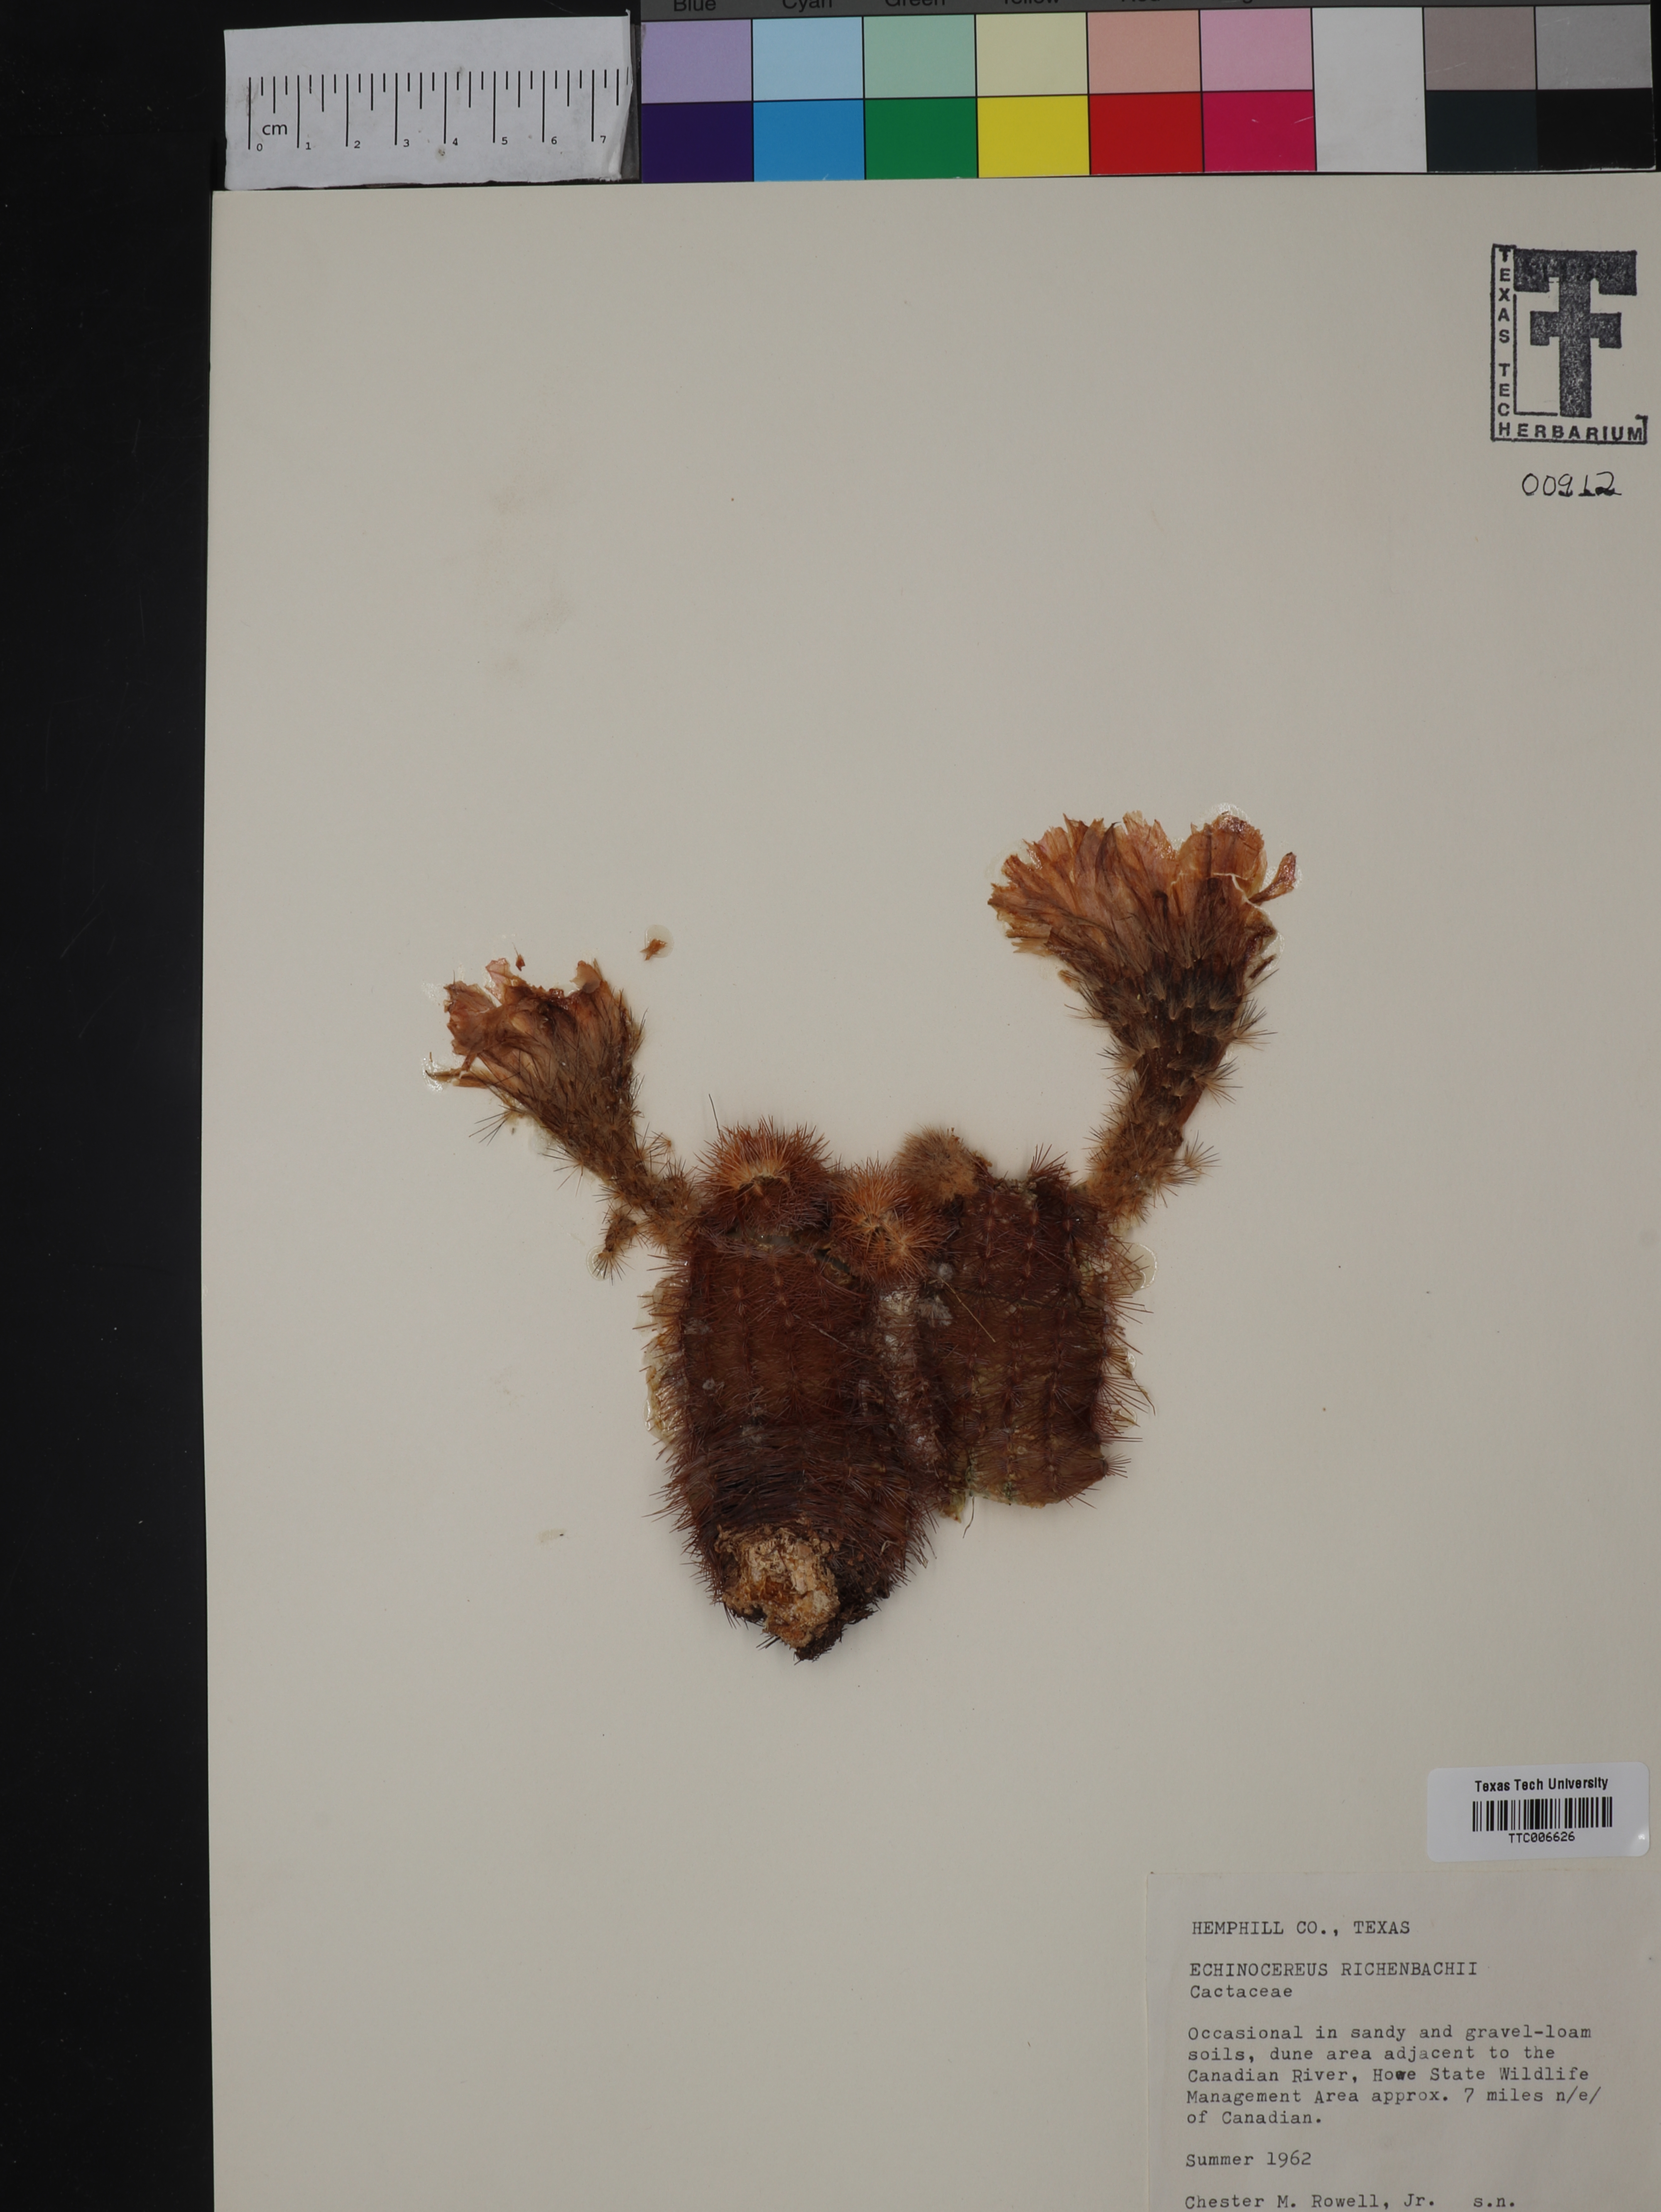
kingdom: Plantae
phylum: Tracheophyta
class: Magnoliopsida
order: Caryophyllales
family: Cactaceae
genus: Echinocereus
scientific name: Echinocereus reichenbachii
